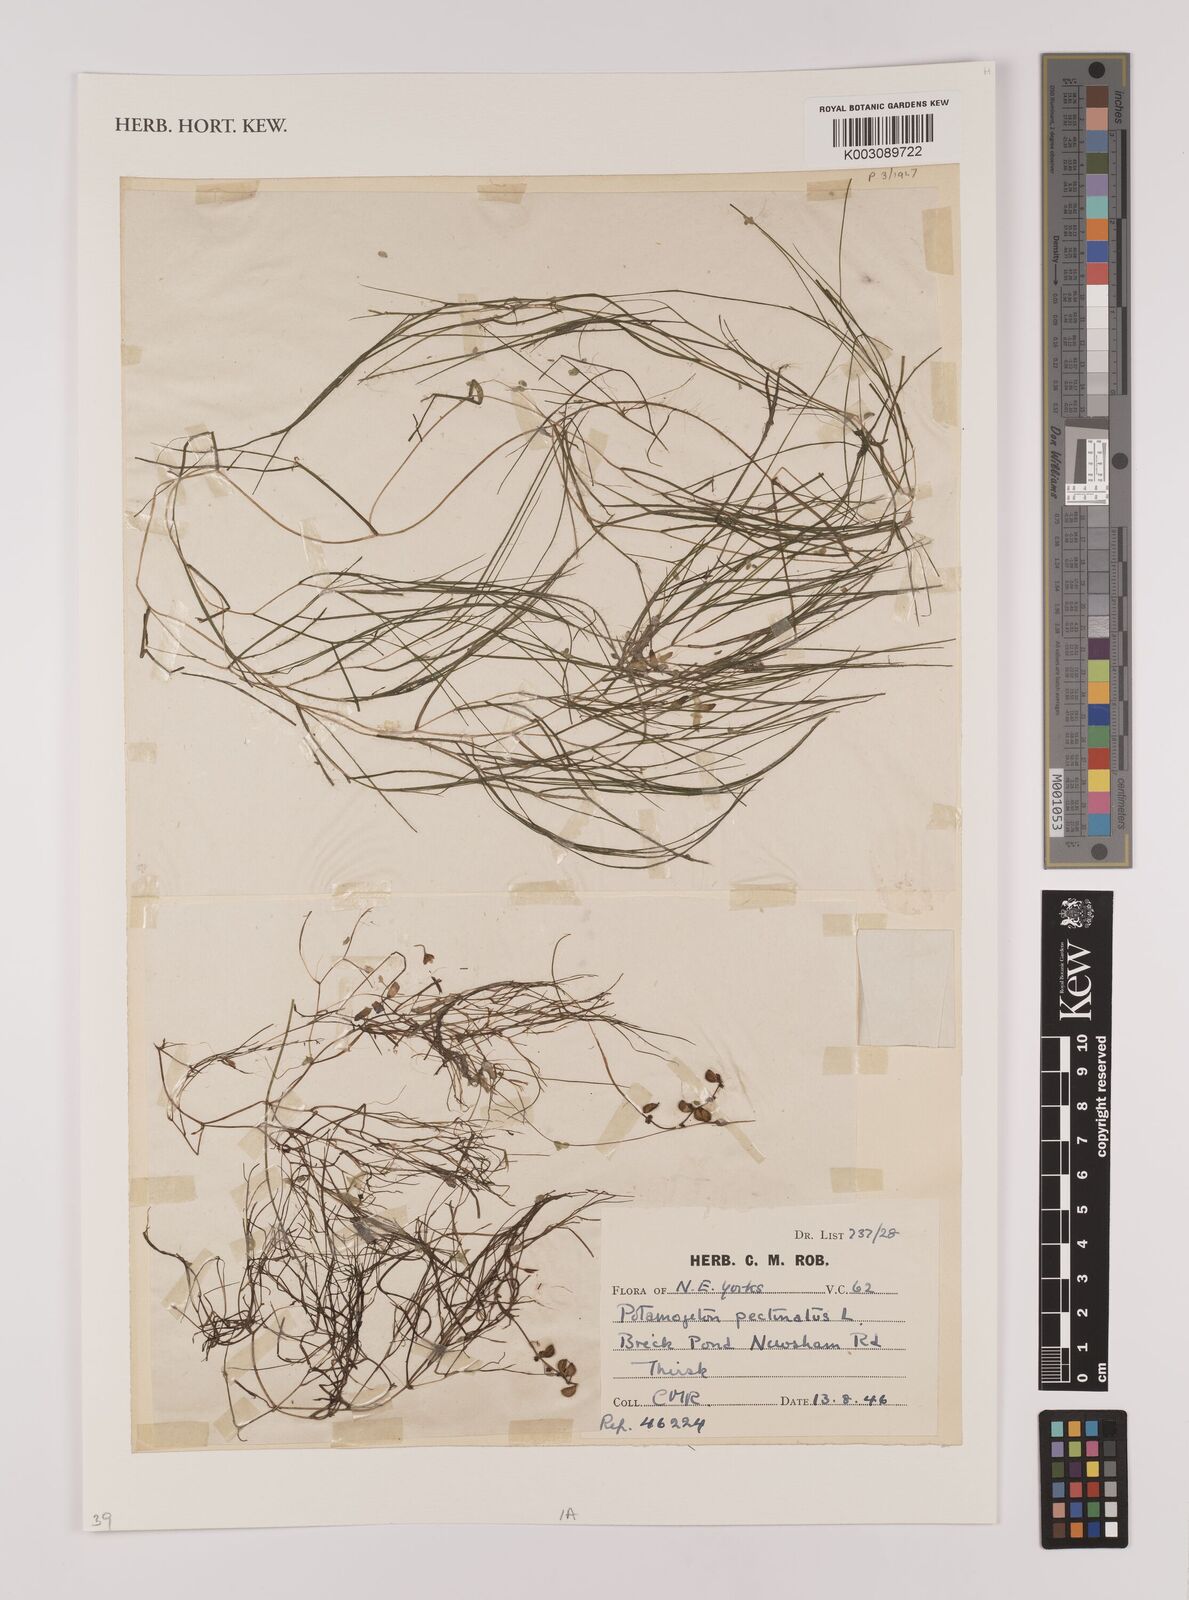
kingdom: Plantae
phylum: Tracheophyta
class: Liliopsida
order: Alismatales
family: Potamogetonaceae
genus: Stuckenia
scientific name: Stuckenia pectinata
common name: Sago pondweed
